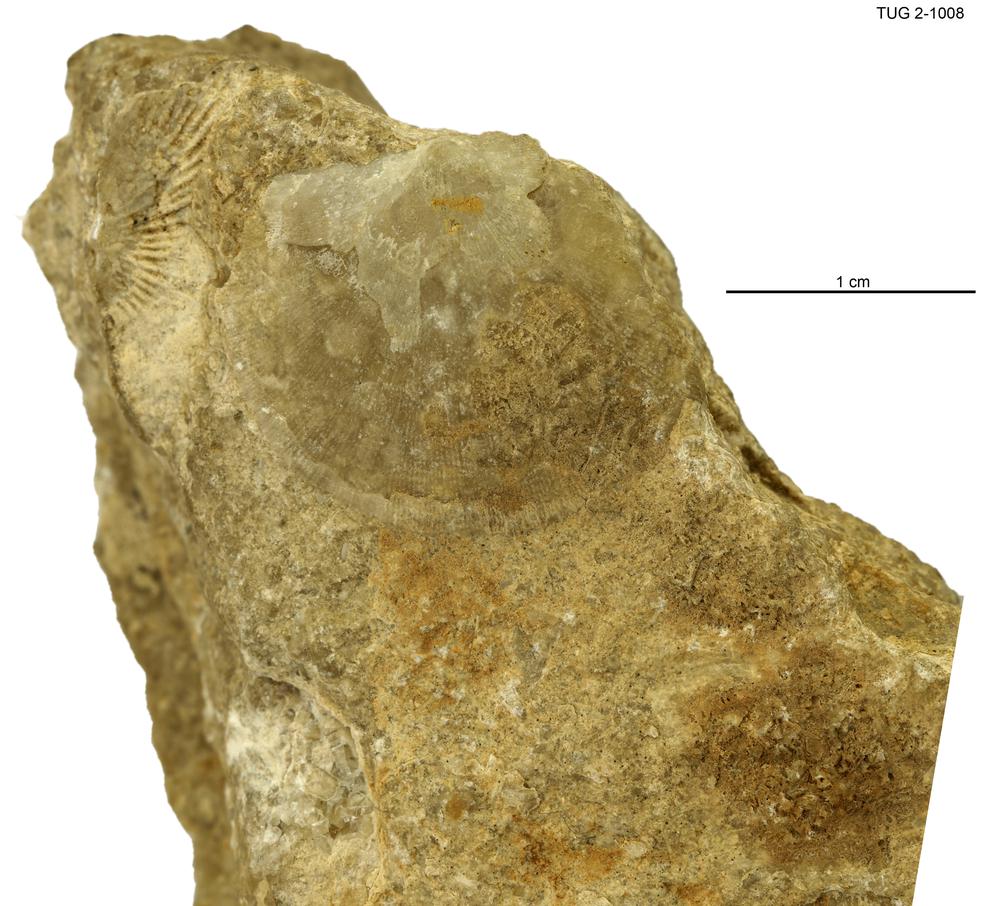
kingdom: Animalia
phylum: Brachiopoda
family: Strophomenidae
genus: Holtedahlina
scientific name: Holtedahlina
